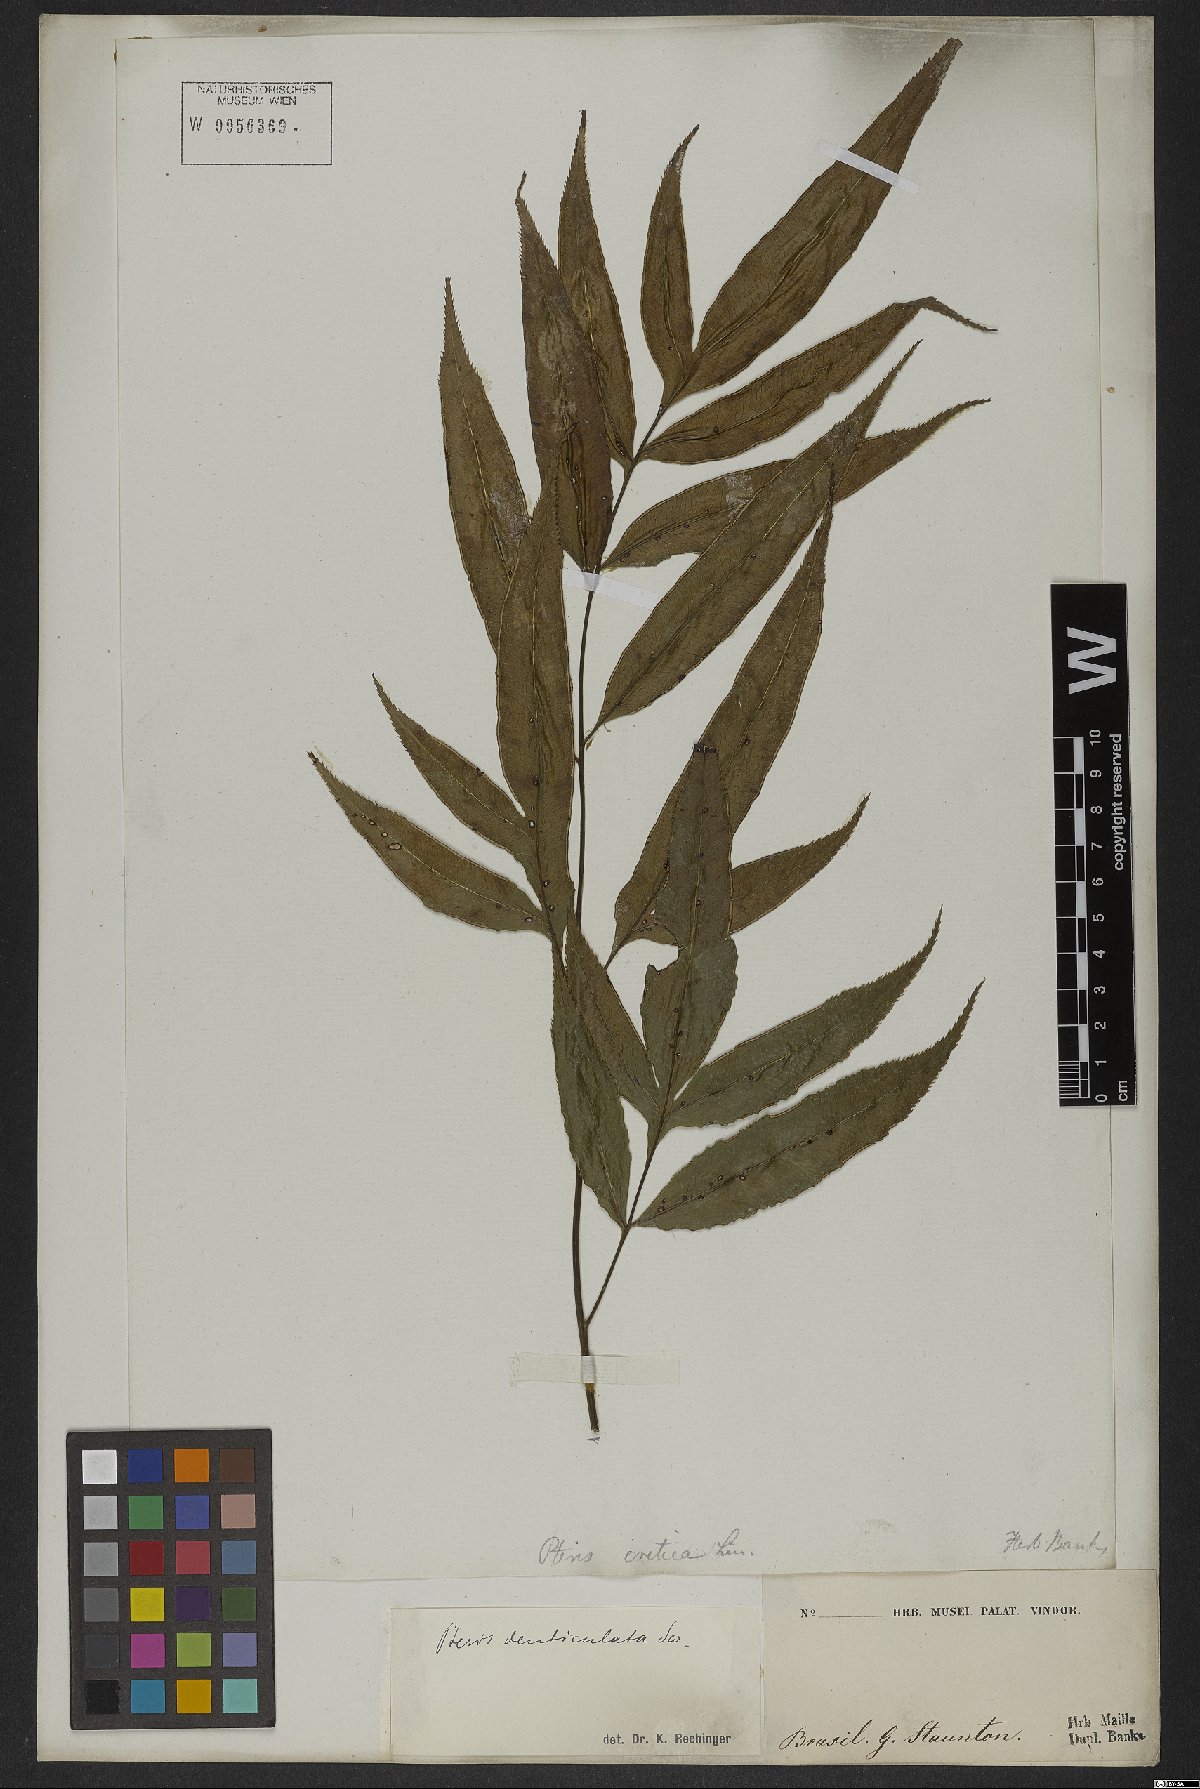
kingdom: Plantae
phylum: Tracheophyta
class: Polypodiopsida
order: Polypodiales
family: Pteridaceae
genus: Pteris
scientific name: Pteris denticulata
